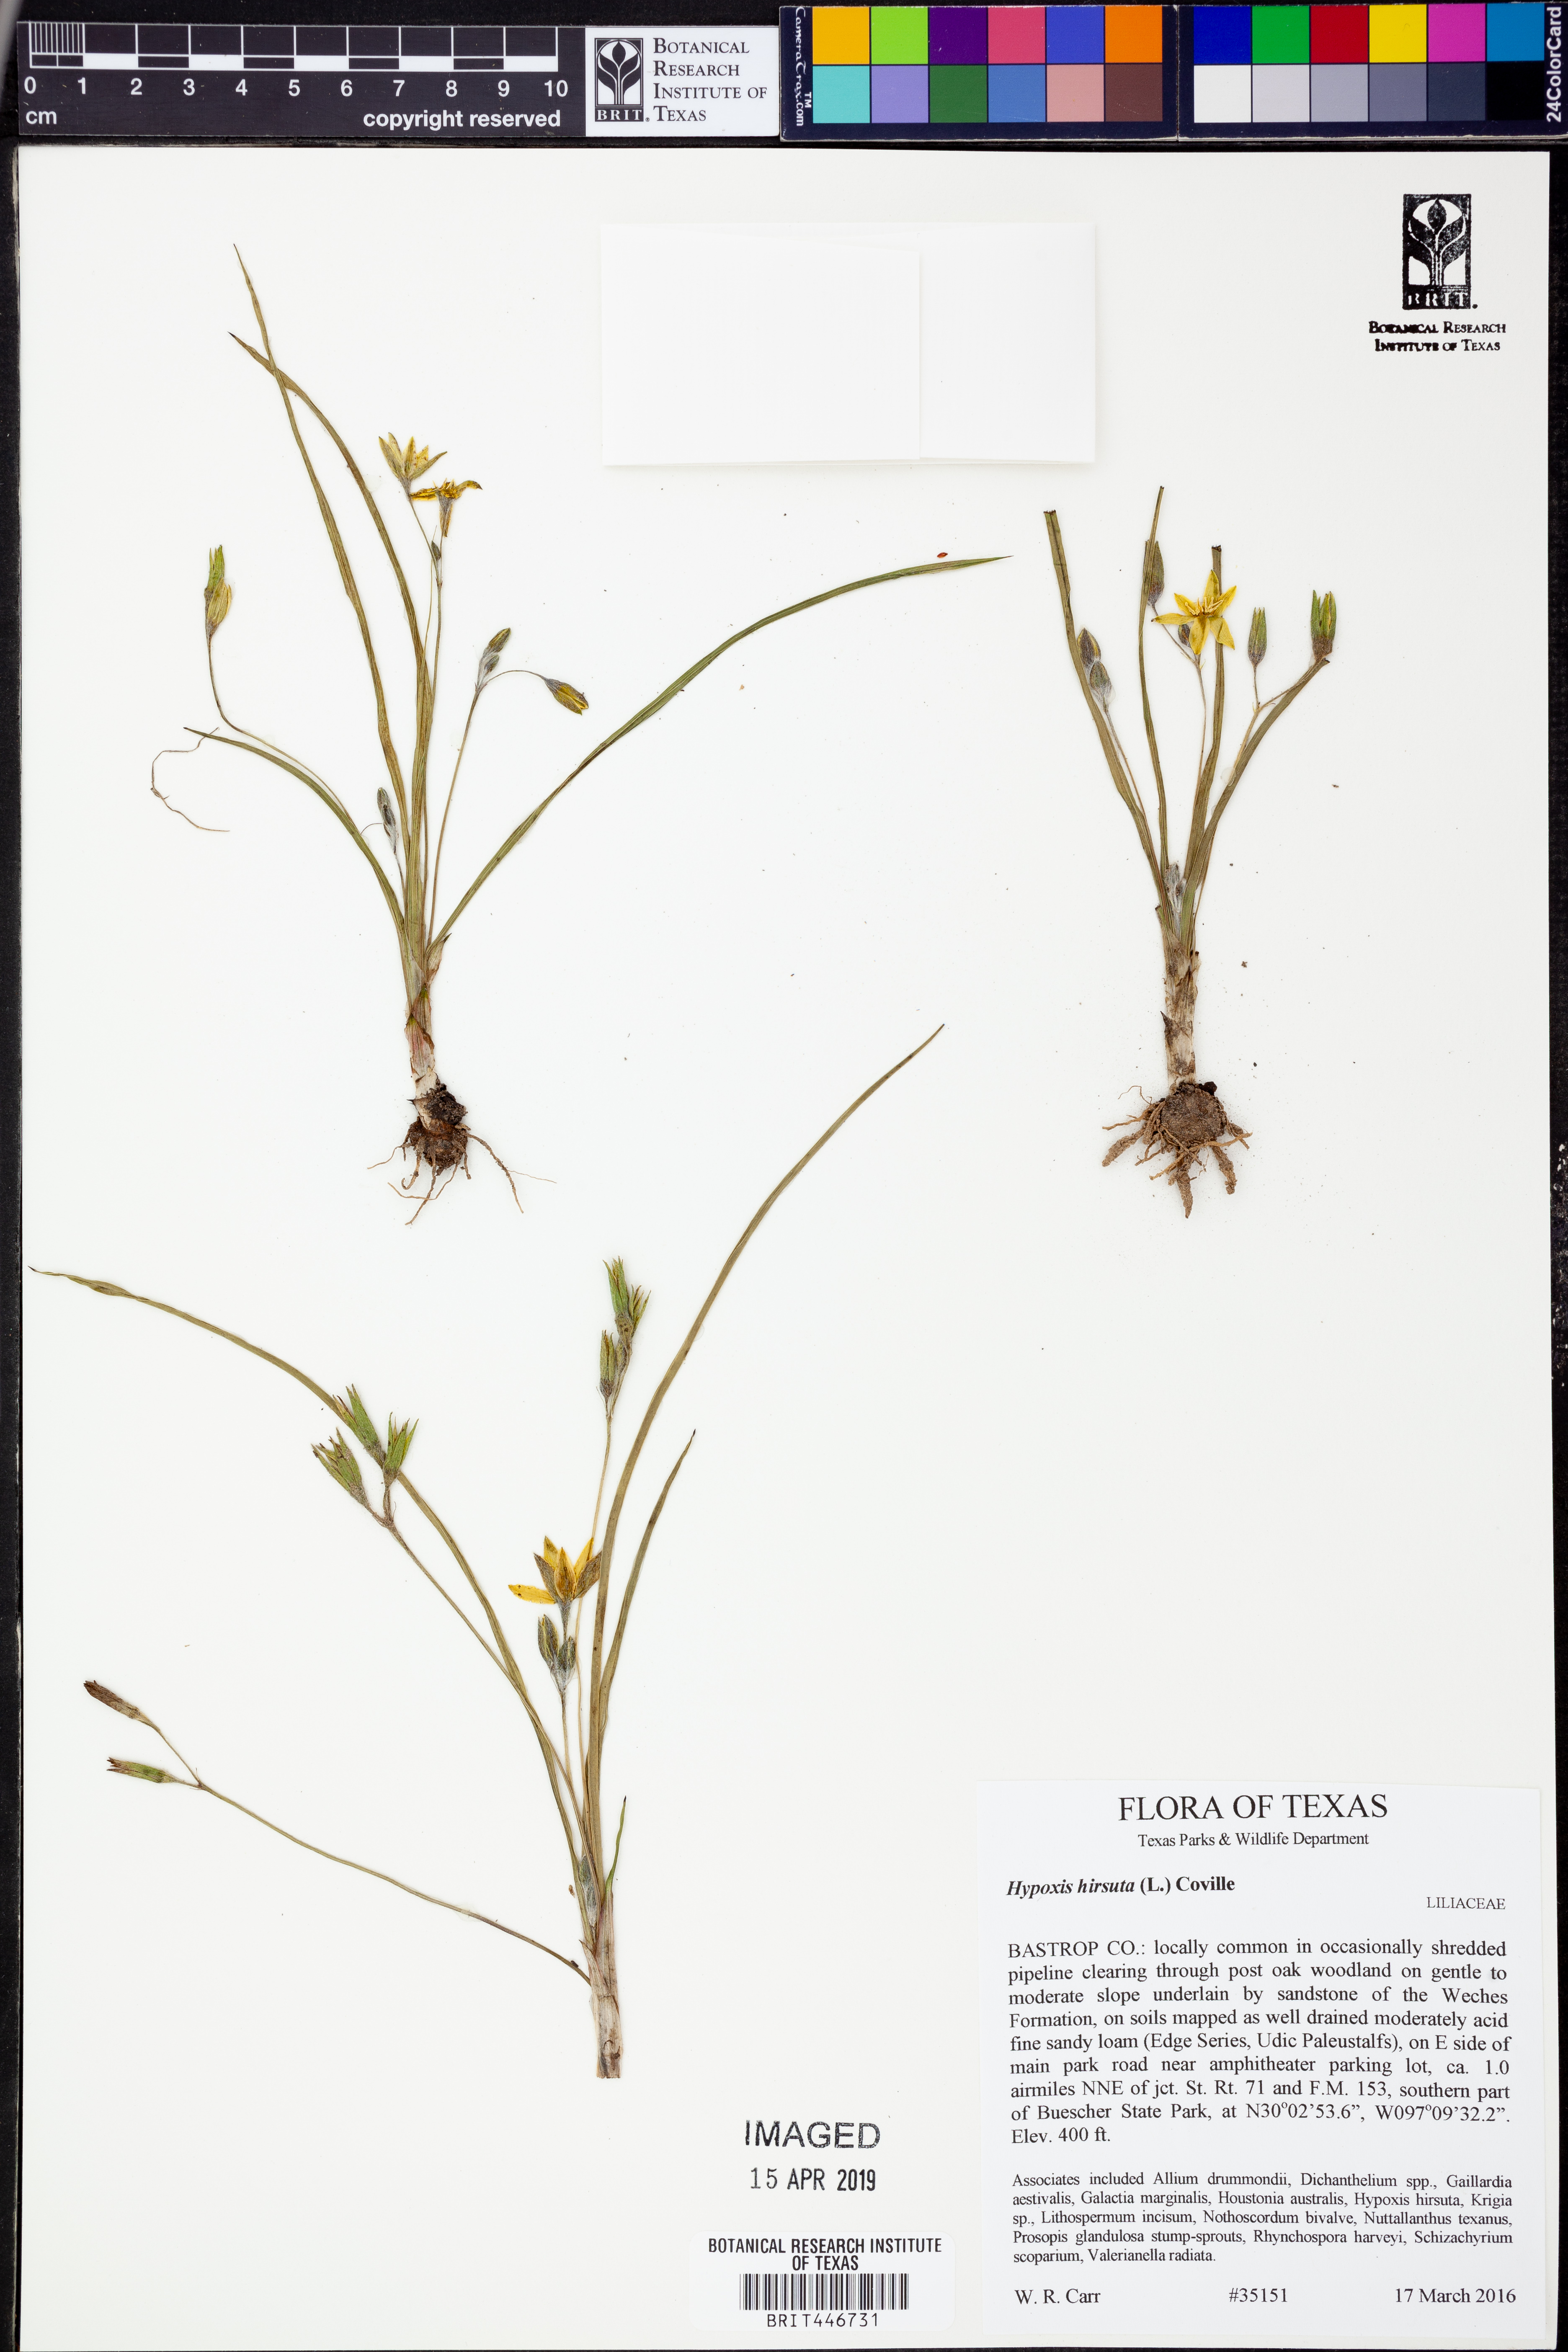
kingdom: Plantae
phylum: Tracheophyta
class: Magnoliopsida
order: Asterales
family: Asteraceae
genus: Krigia
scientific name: Krigia occidentalis
